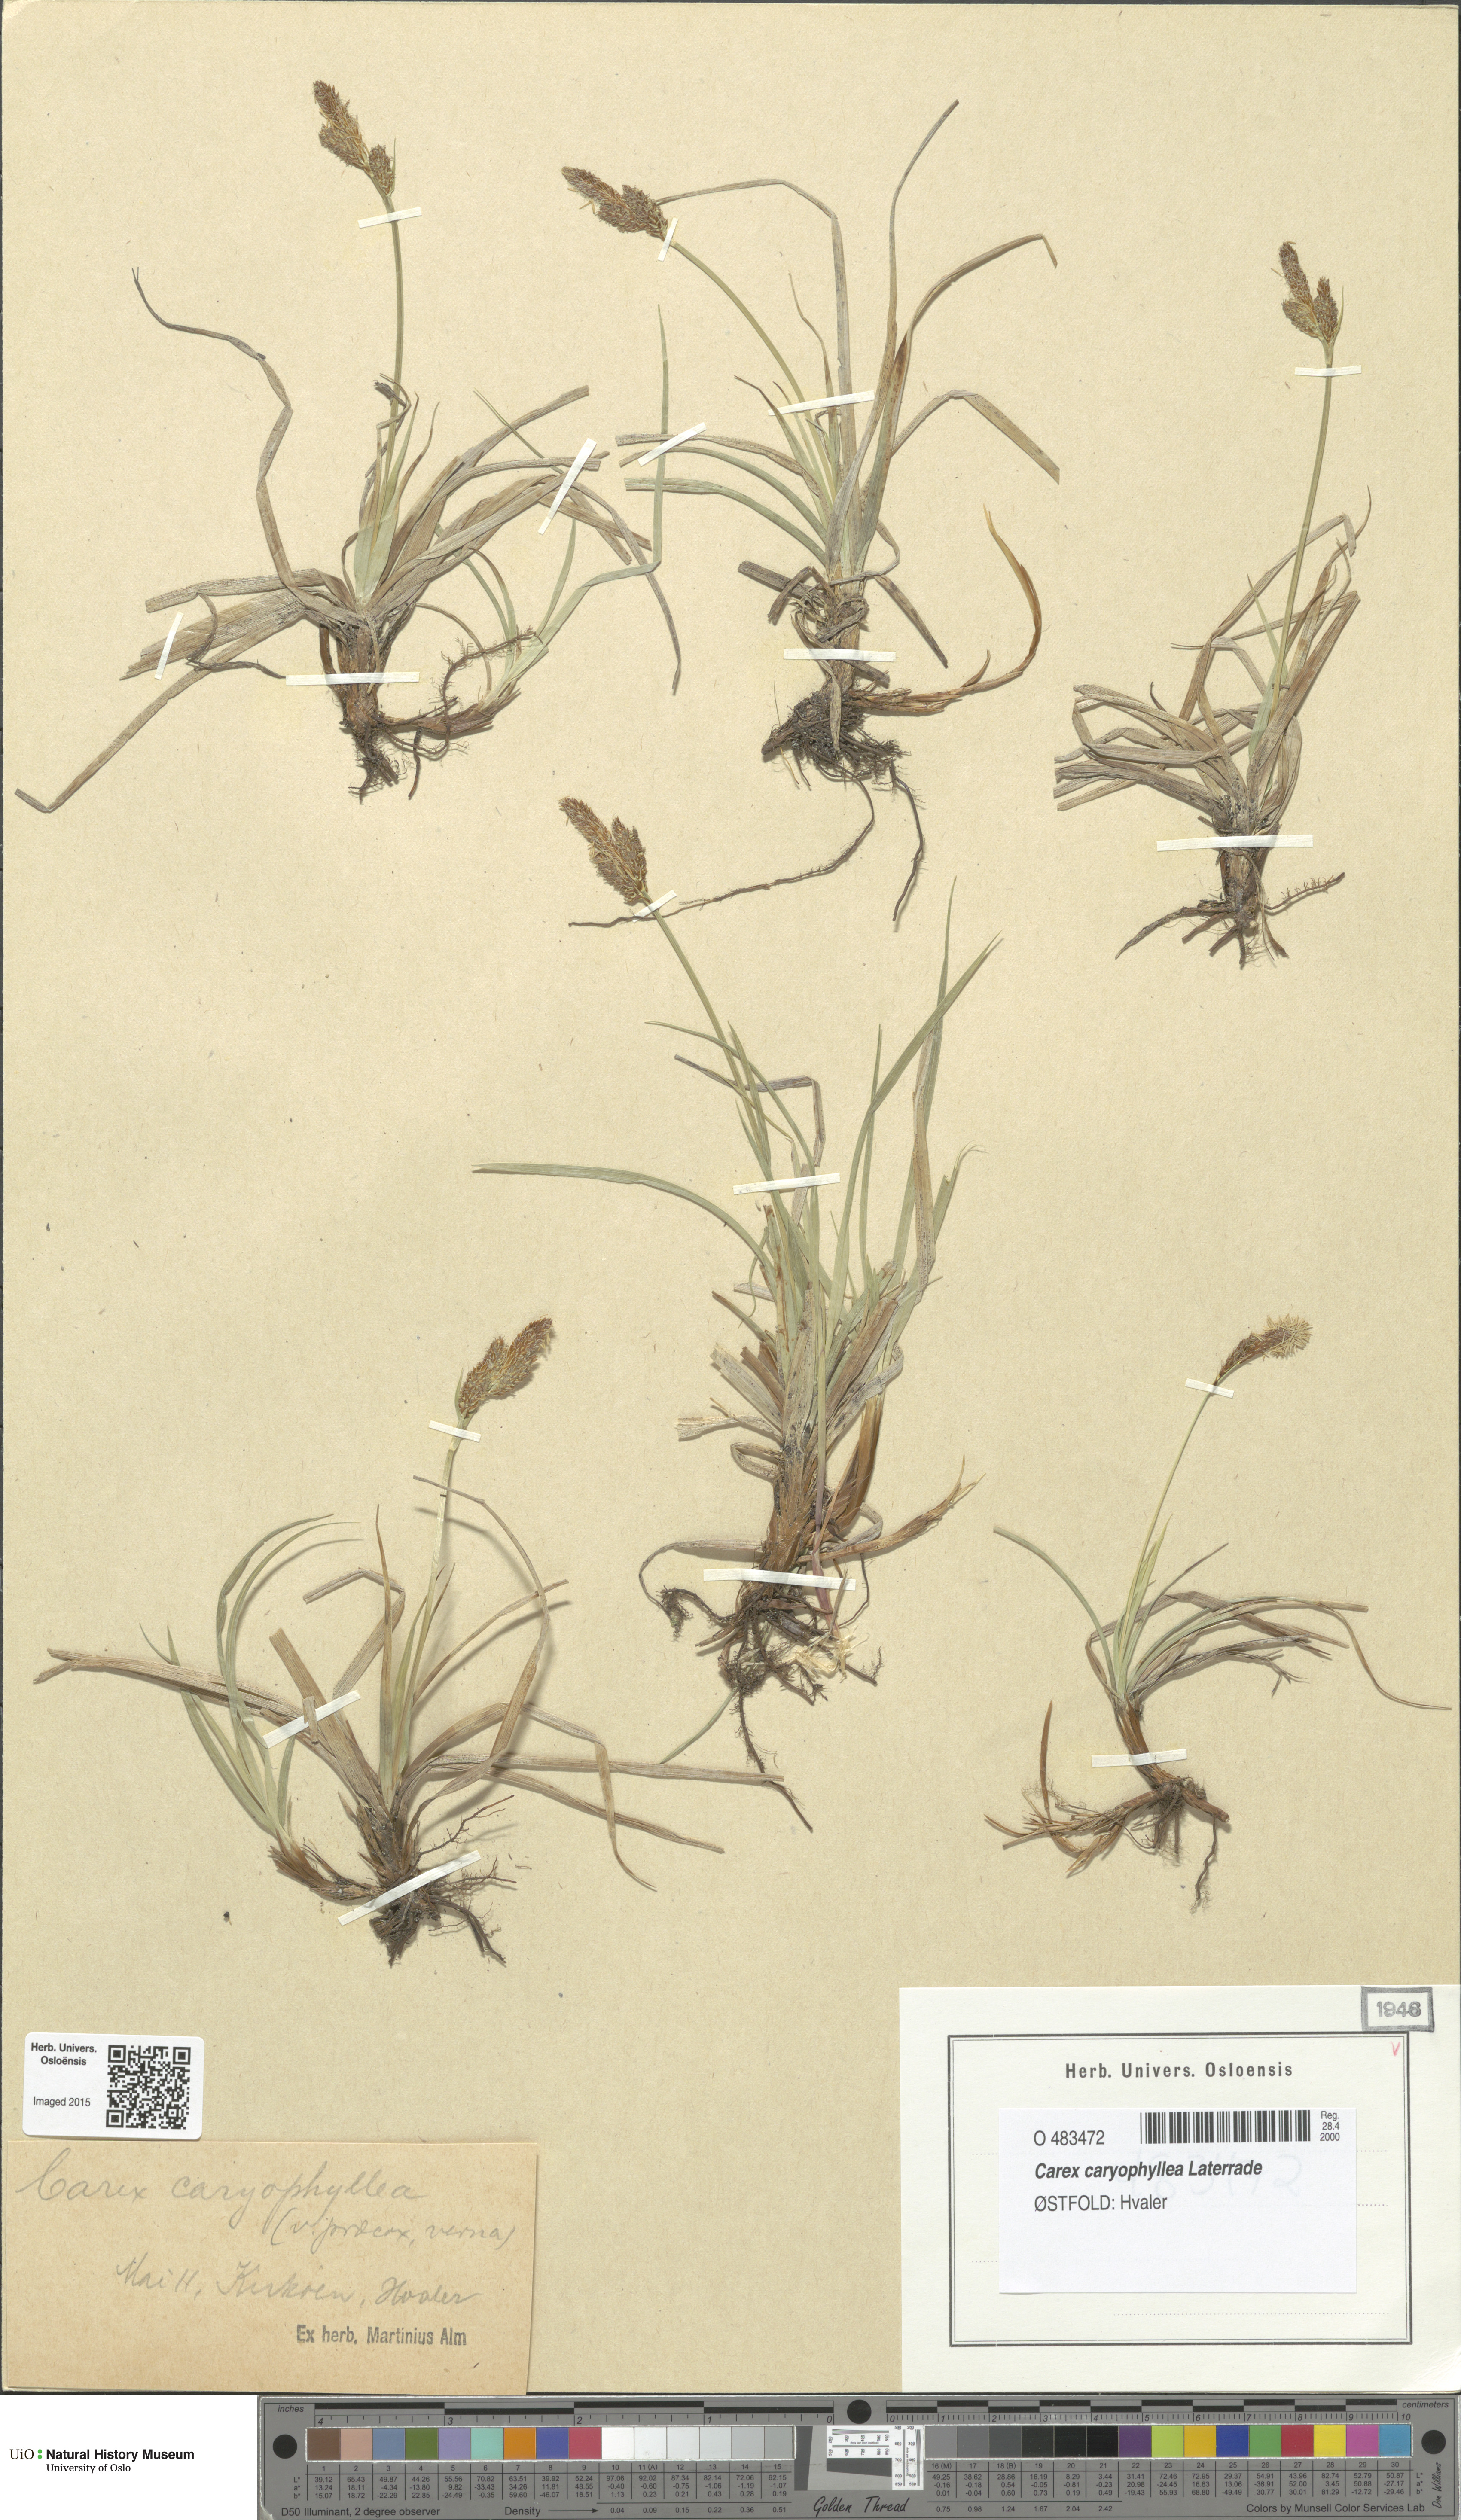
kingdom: Plantae
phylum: Tracheophyta
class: Liliopsida
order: Poales
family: Cyperaceae
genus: Carex
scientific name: Carex caryophyllea
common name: Spring sedge
